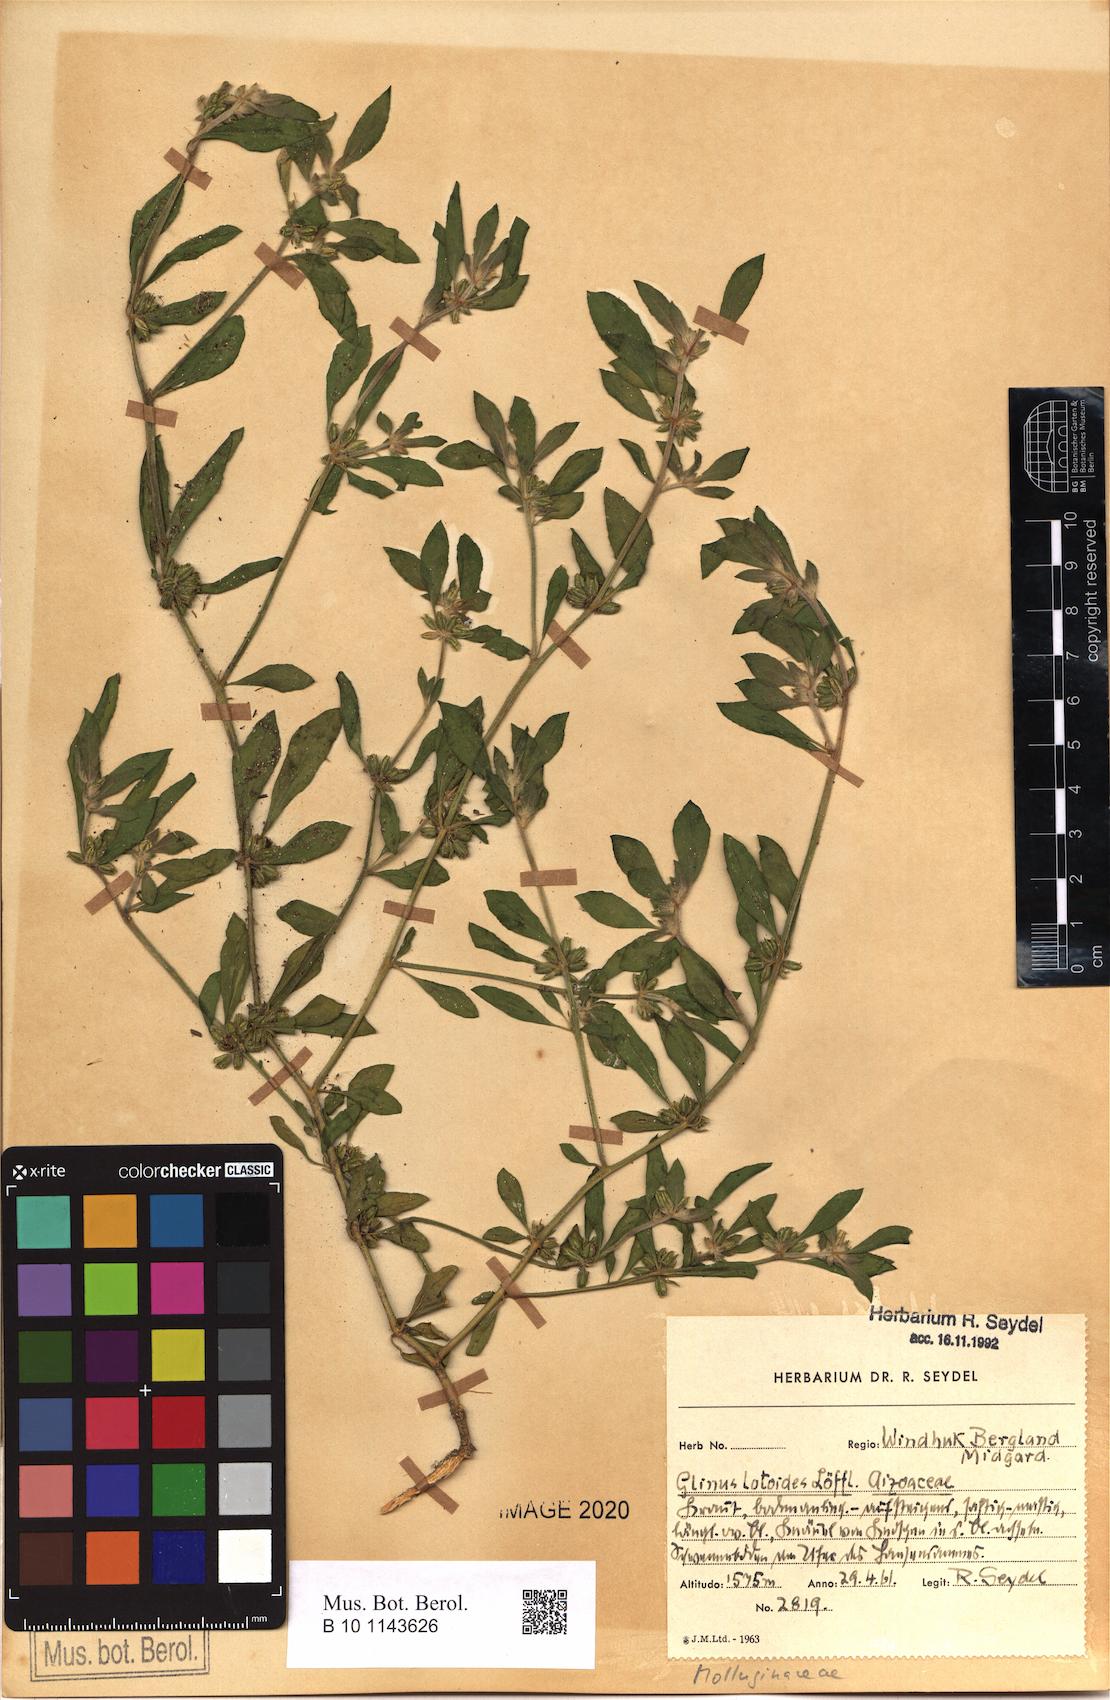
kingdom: Plantae
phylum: Tracheophyta
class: Magnoliopsida
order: Caryophyllales
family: Molluginaceae
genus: Glinus
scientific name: Glinus hirtus
